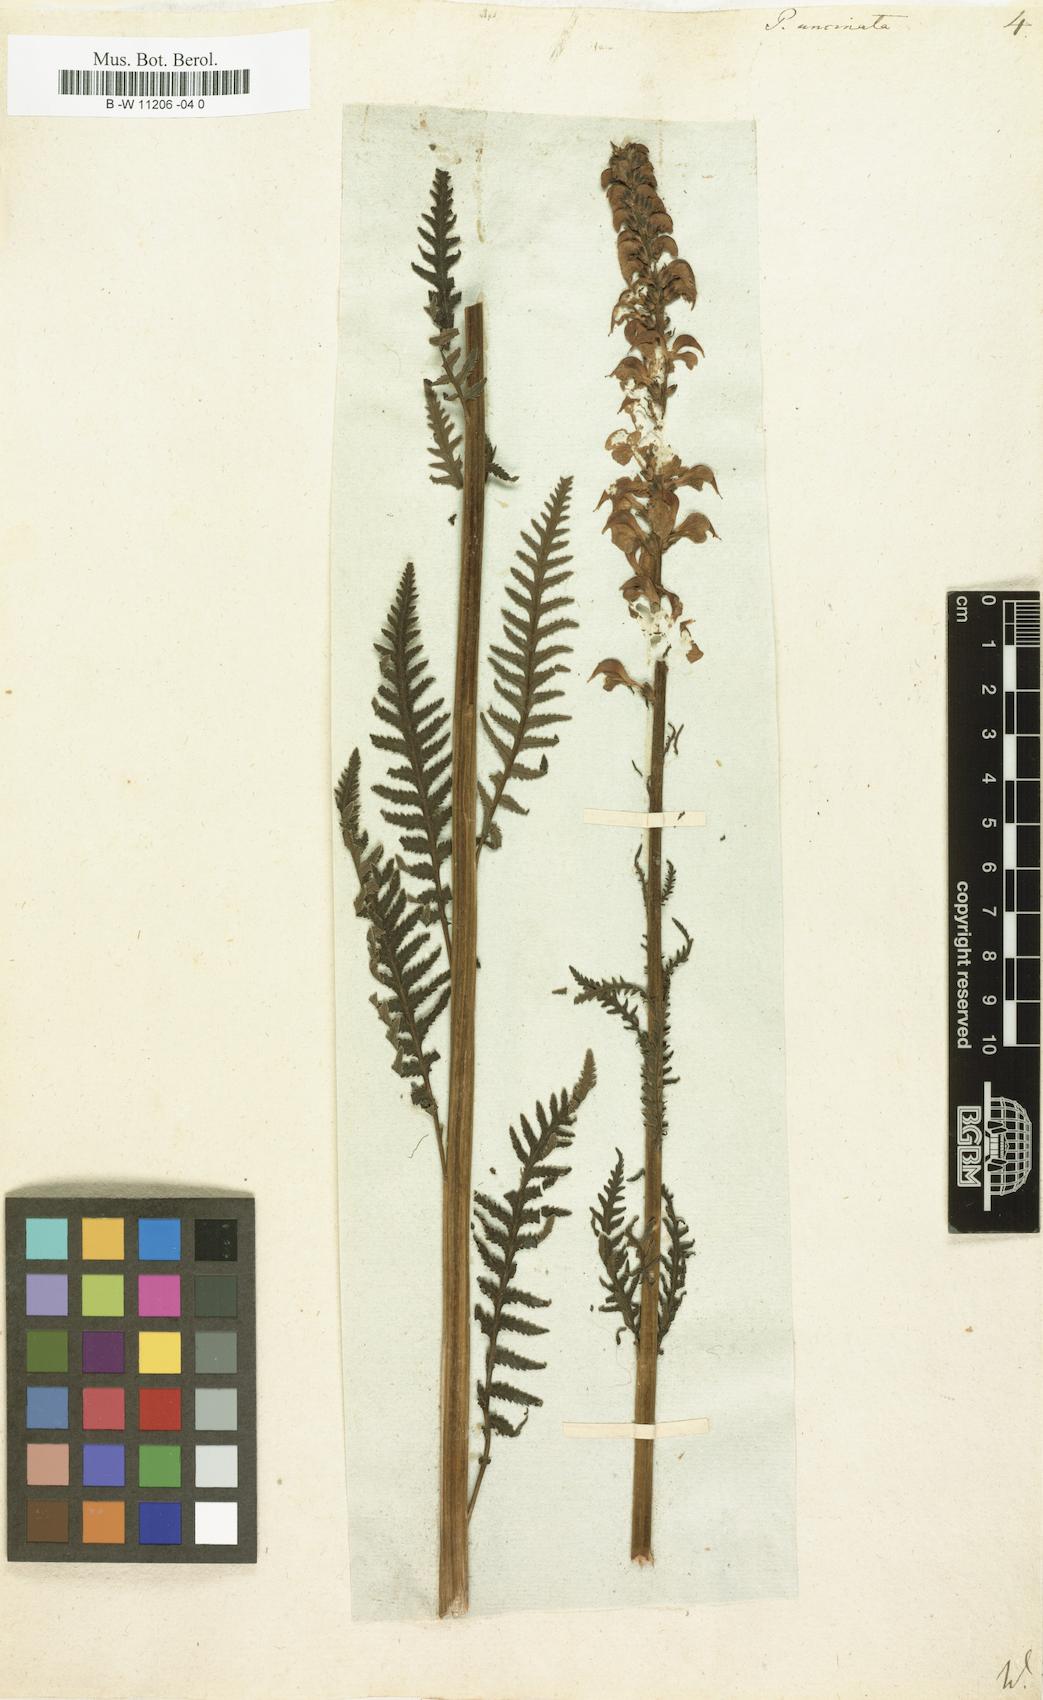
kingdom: Plantae
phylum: Tracheophyta
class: Magnoliopsida
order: Lamiales
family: Orobanchaceae
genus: Pedicularis
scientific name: Pedicularis
